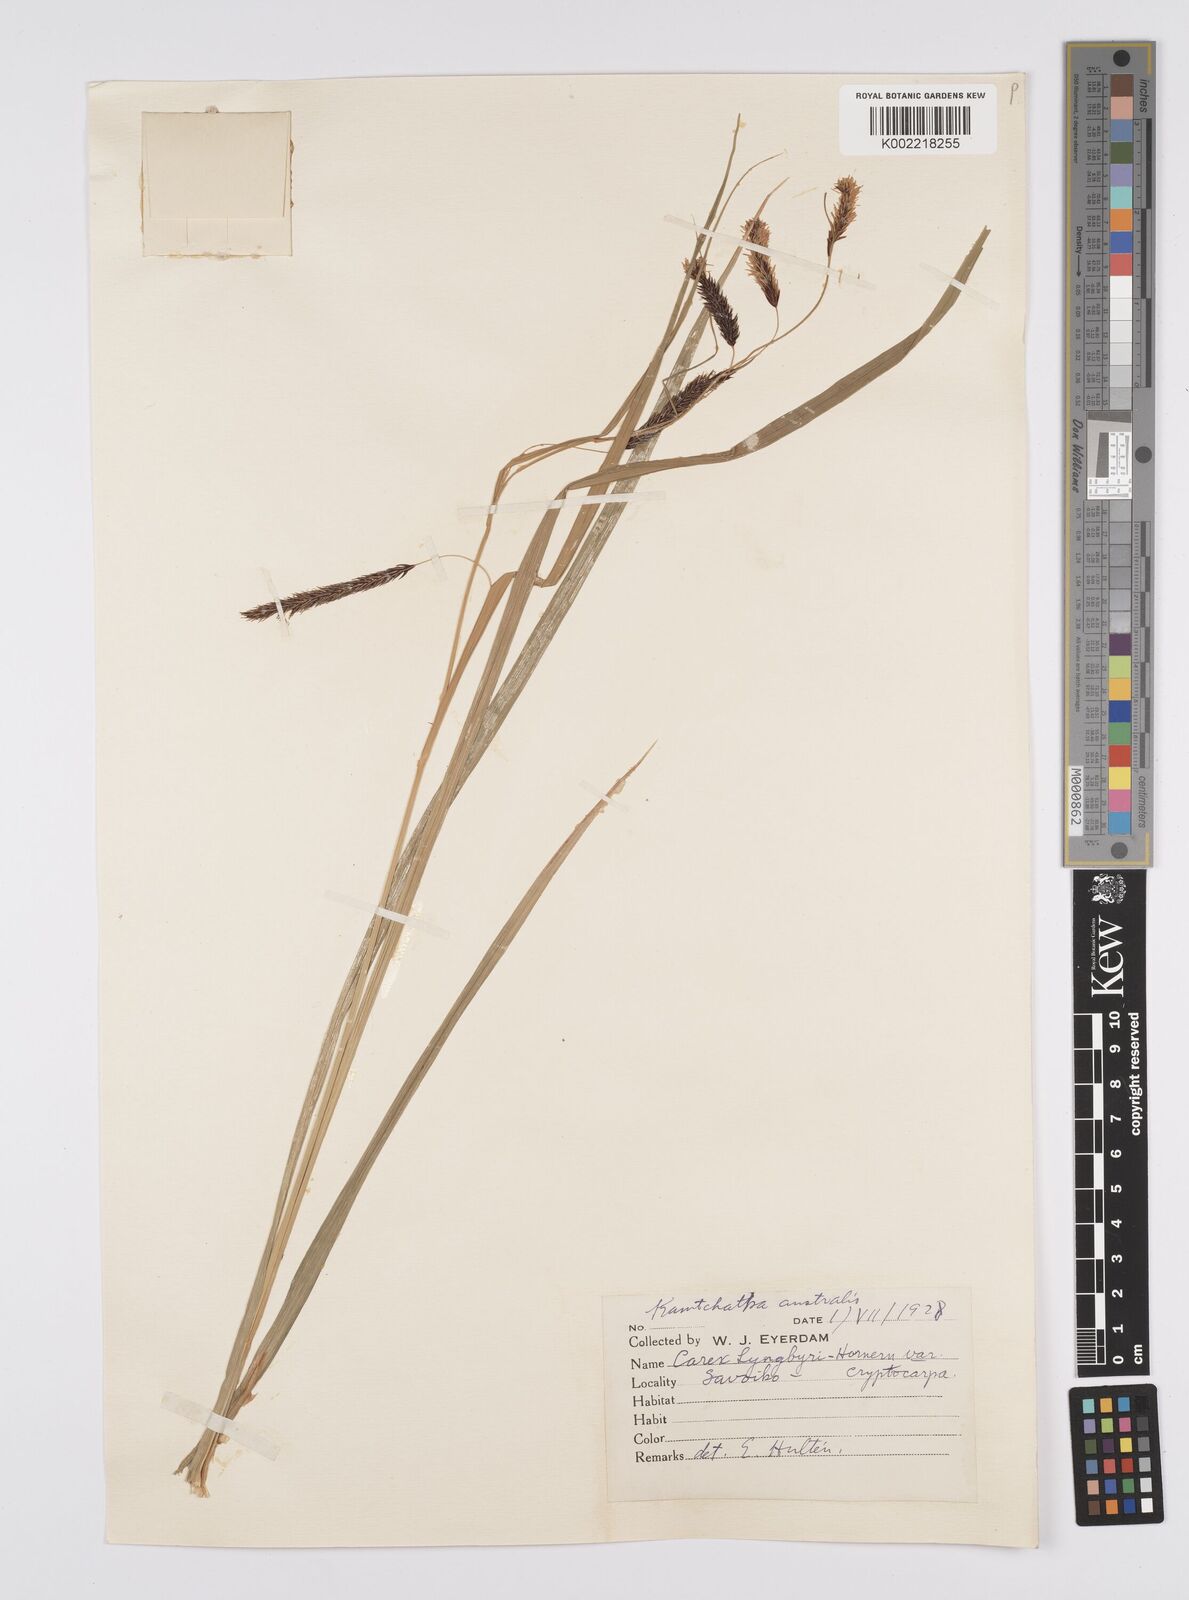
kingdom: Plantae
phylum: Tracheophyta
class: Liliopsida
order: Poales
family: Cyperaceae
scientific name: Cyperaceae
